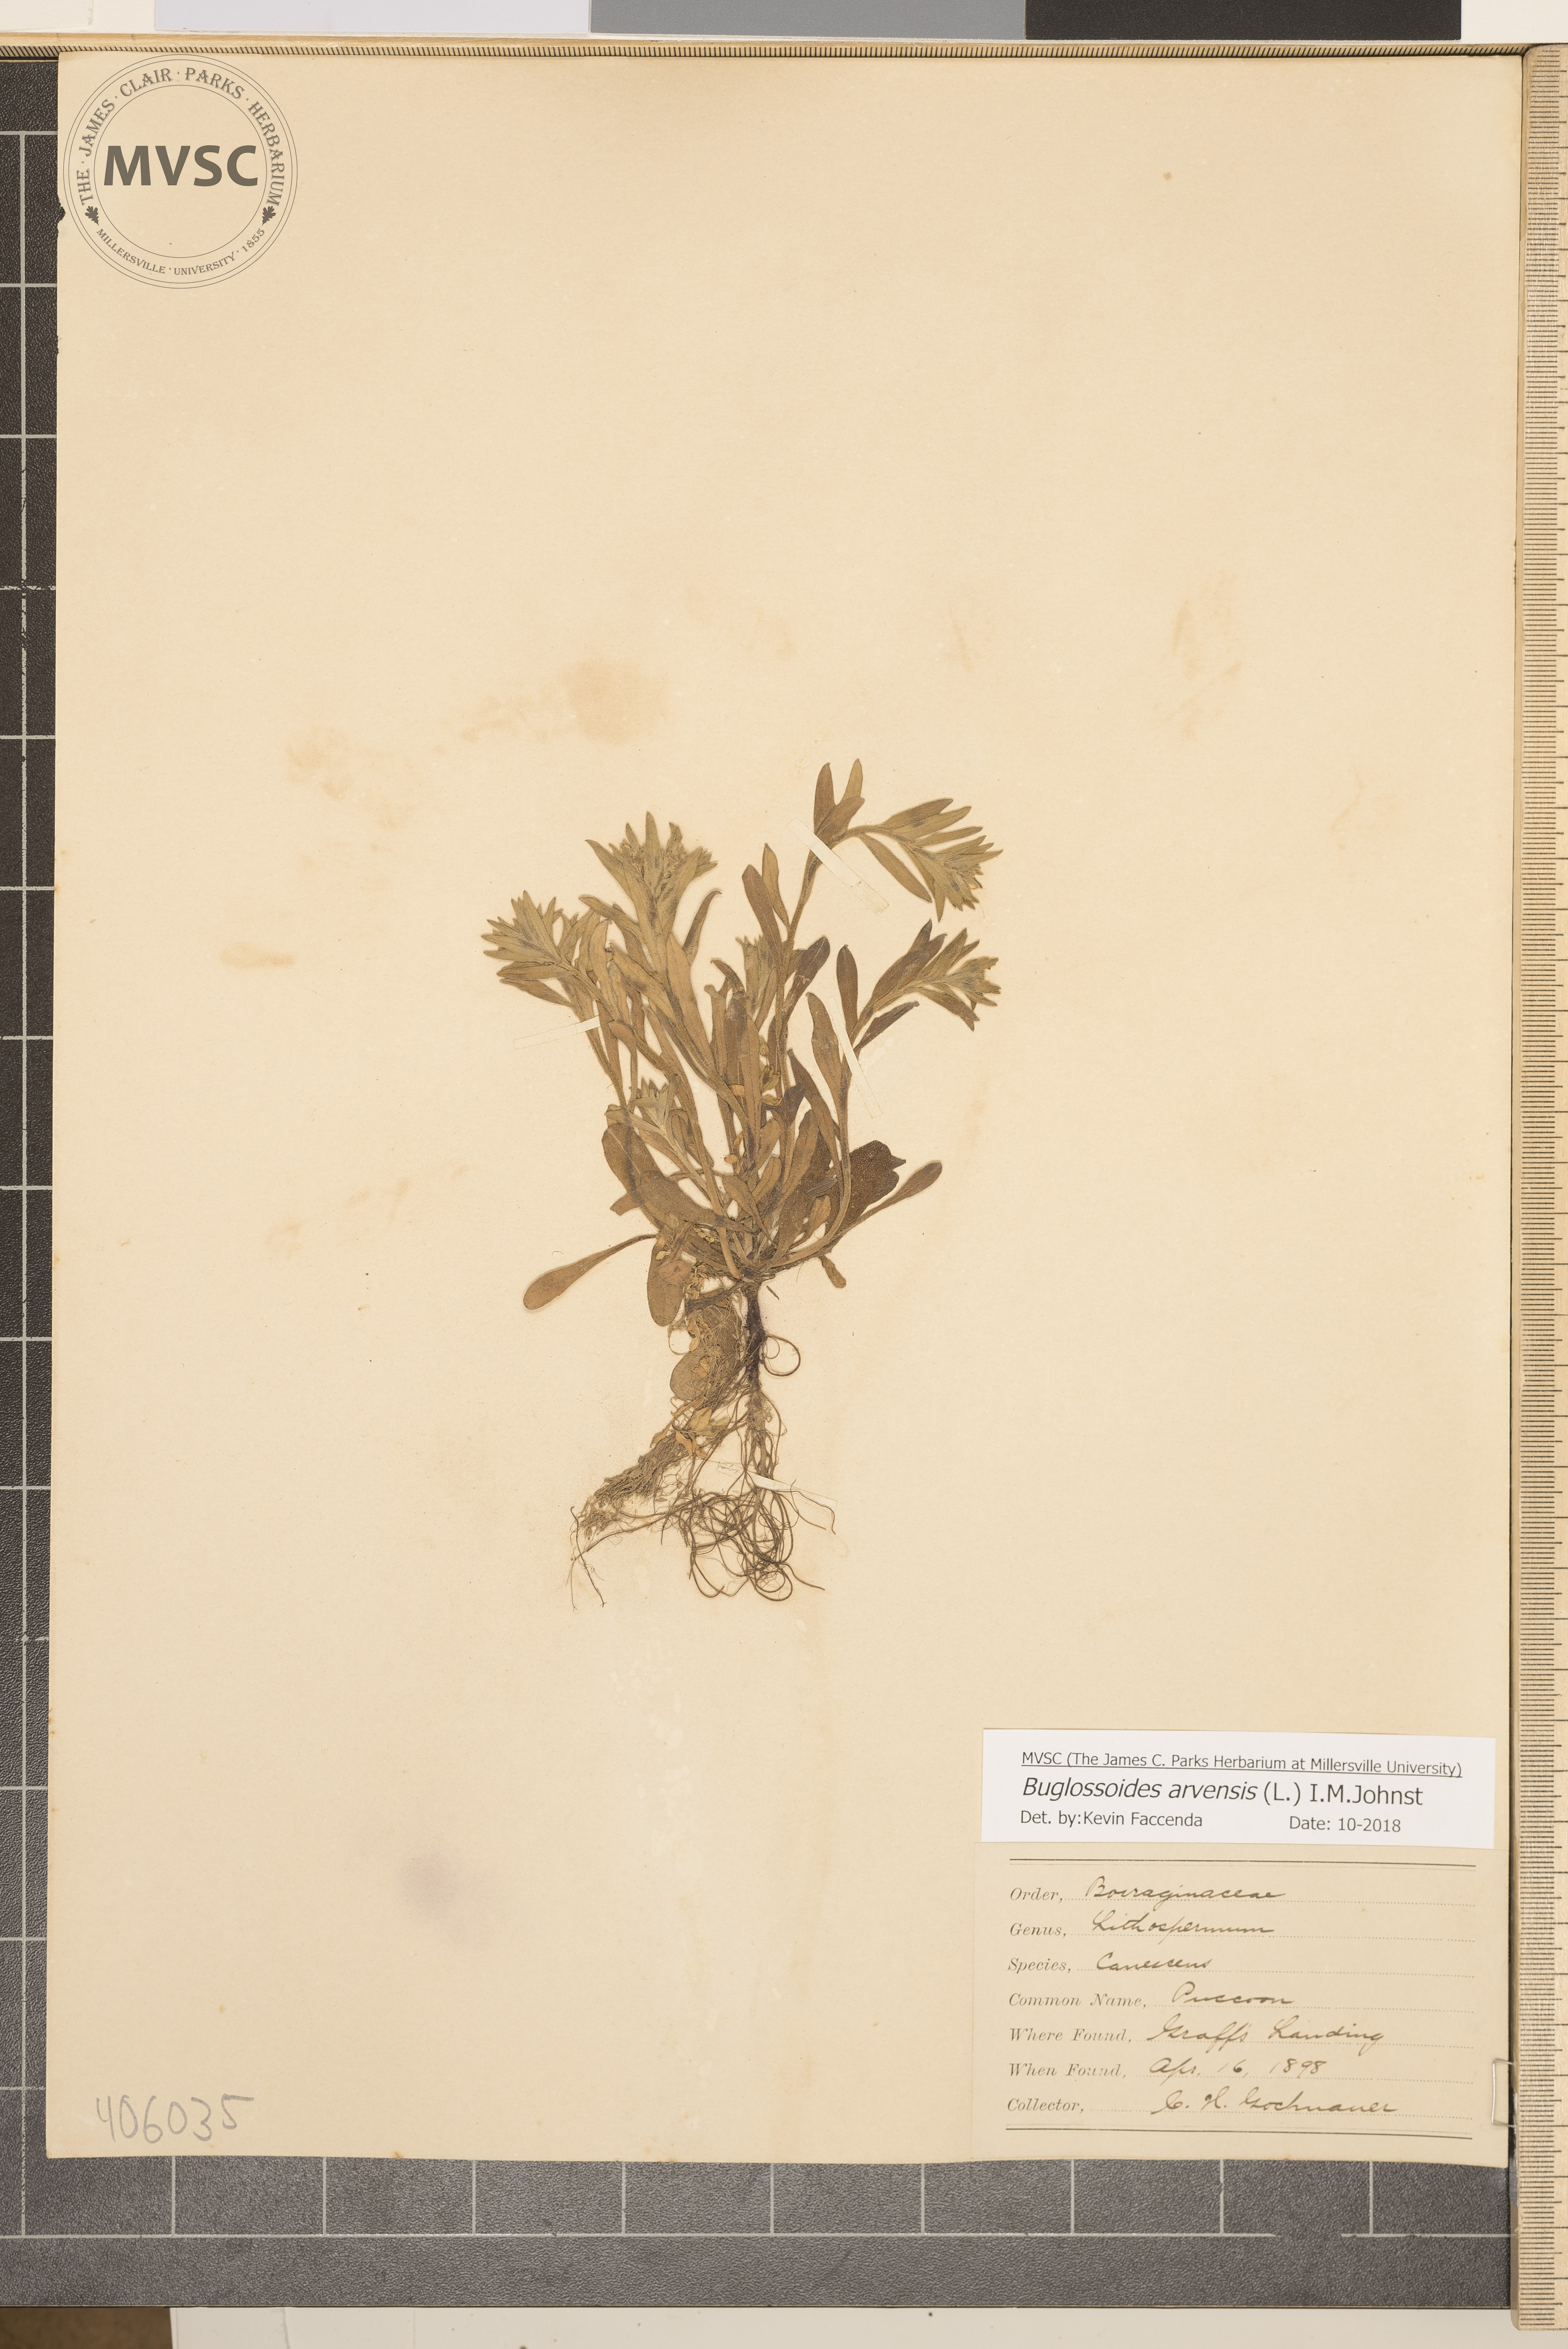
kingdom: Plantae
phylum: Tracheophyta
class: Magnoliopsida
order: Boraginales
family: Boraginaceae
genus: Buglossoides
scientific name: Buglossoides arvensis
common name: Corn gromwell
